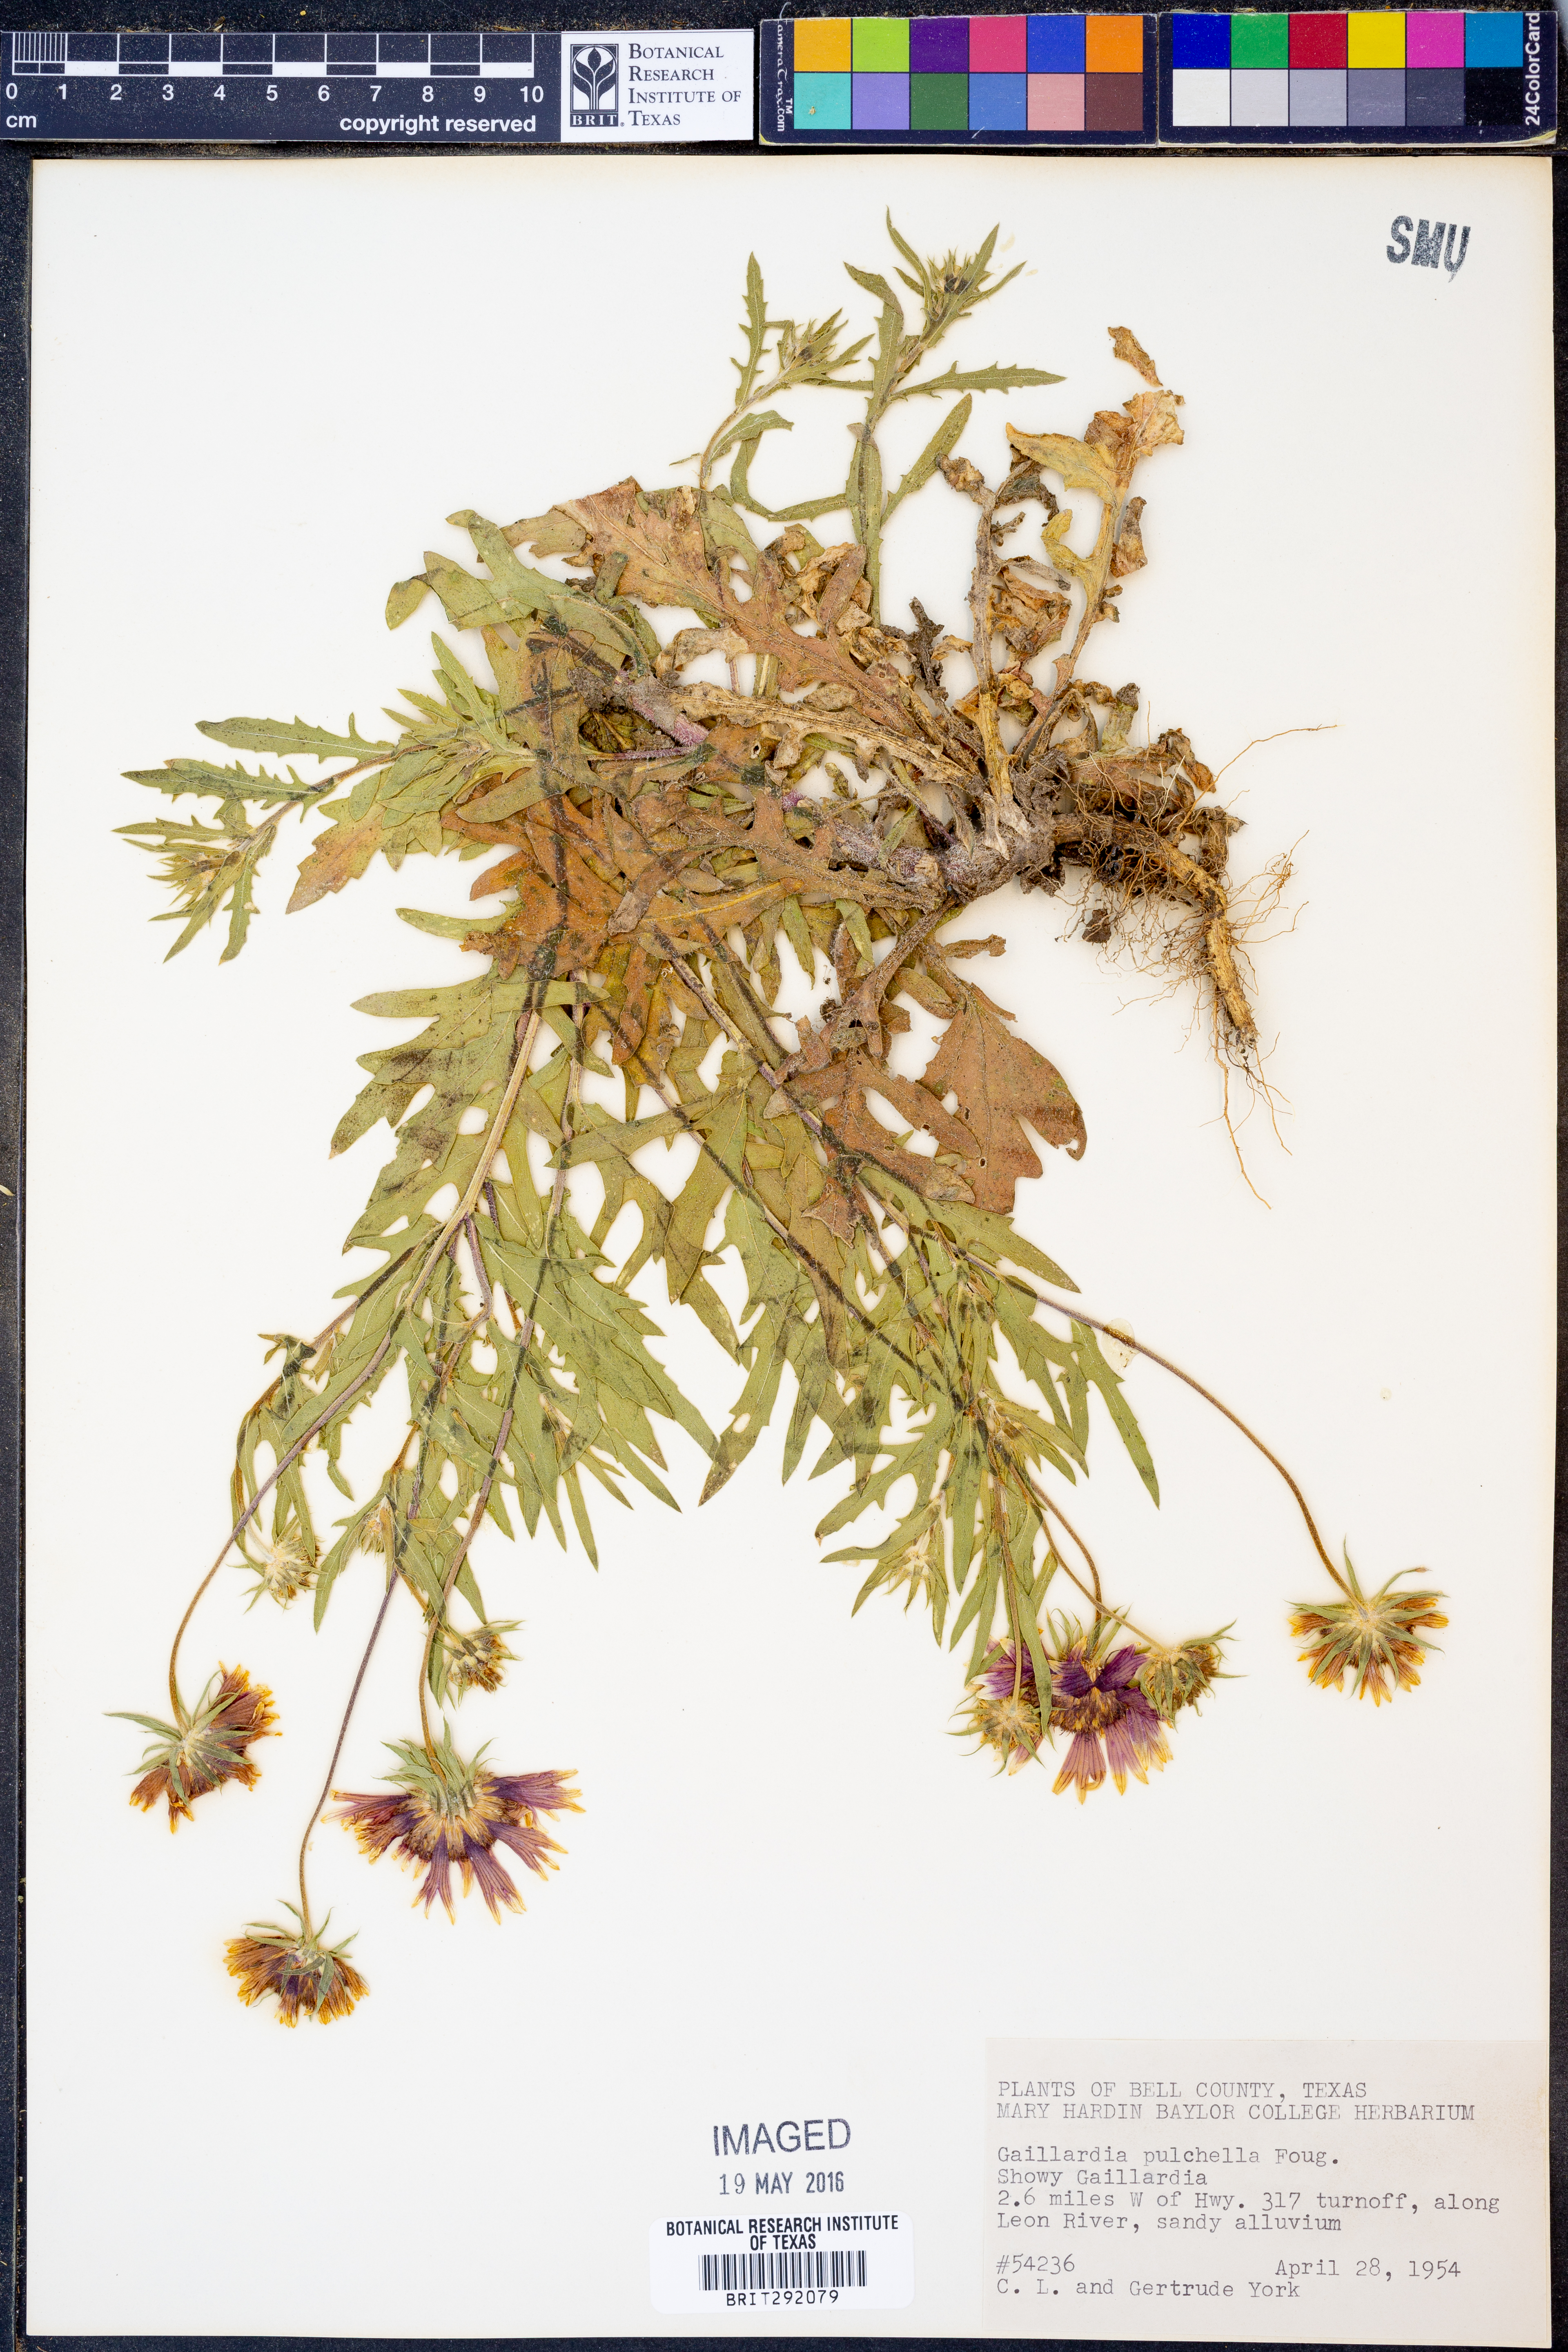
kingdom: Plantae
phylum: Tracheophyta
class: Magnoliopsida
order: Asterales
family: Asteraceae
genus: Gaillardia
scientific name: Gaillardia pulchella
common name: Firewheel
